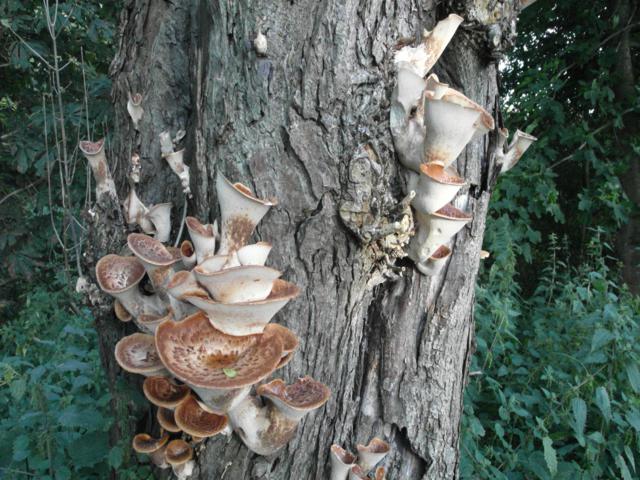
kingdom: Fungi
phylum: Basidiomycota
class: Agaricomycetes
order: Polyporales
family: Polyporaceae
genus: Cerioporus
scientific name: Cerioporus squamosus
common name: skællet stilkporesvamp
